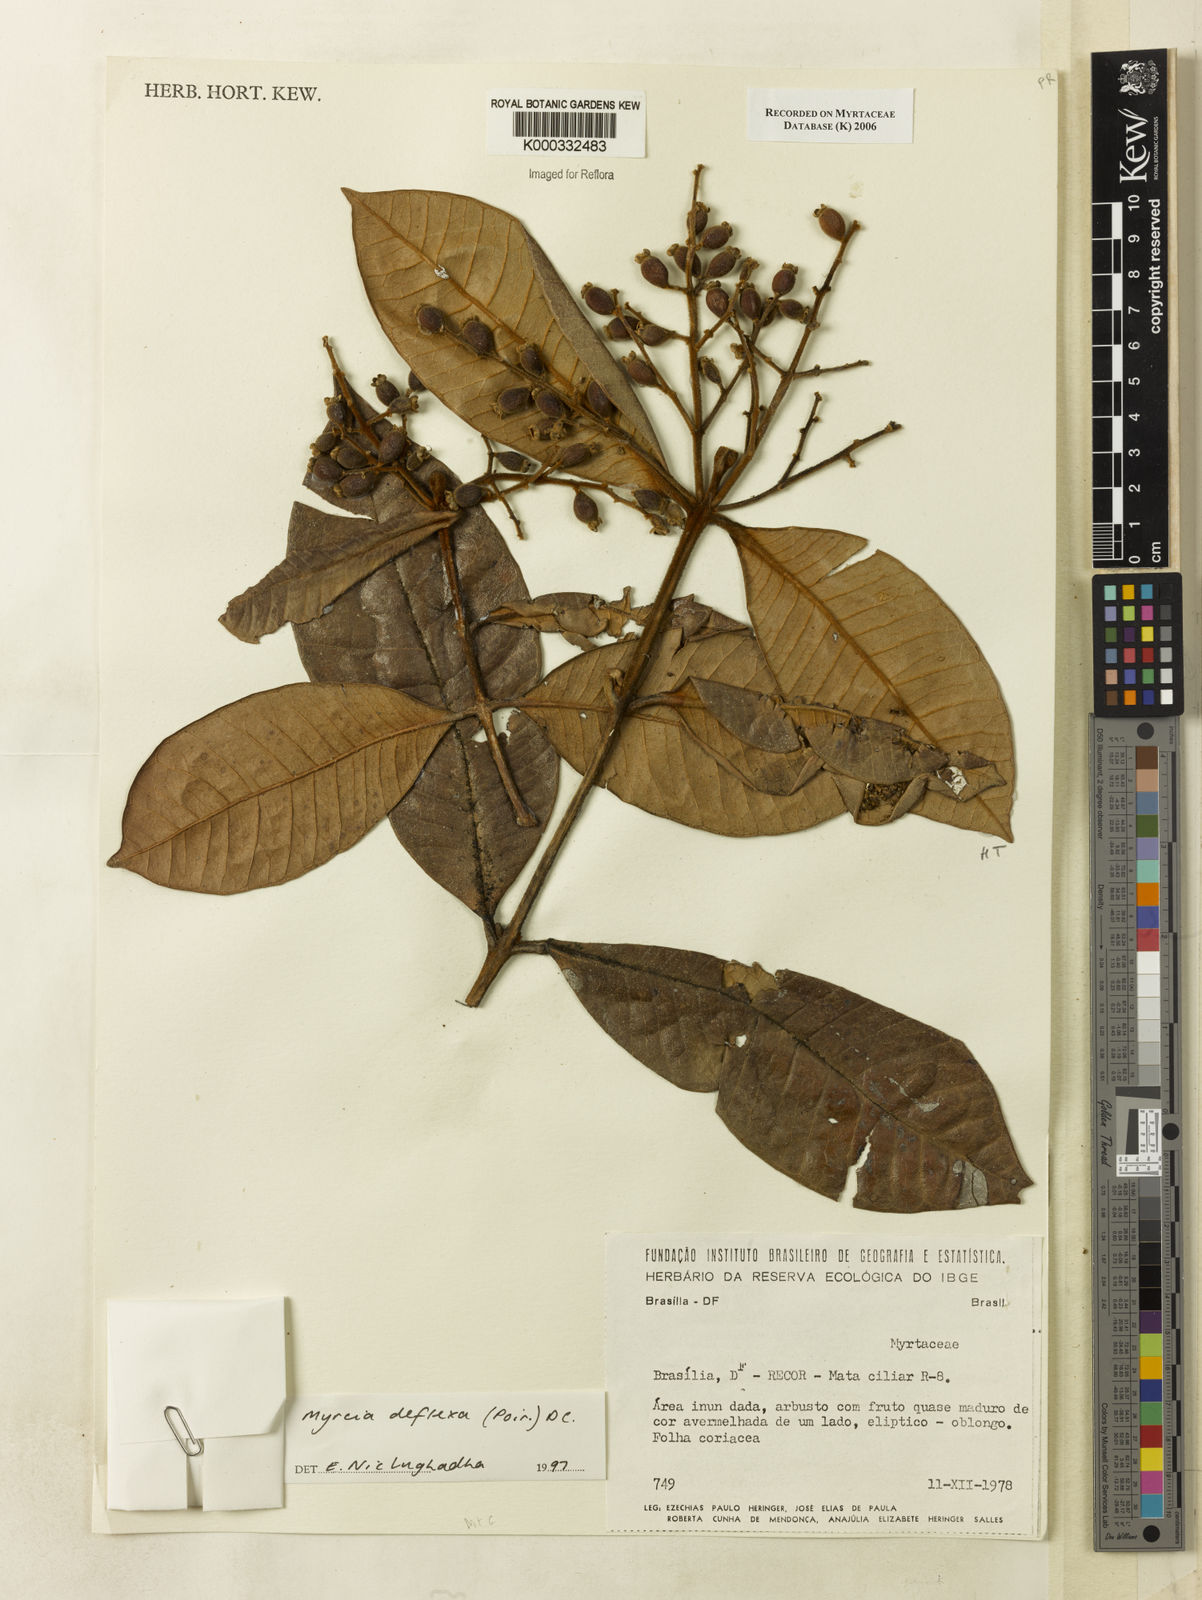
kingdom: Plantae
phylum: Tracheophyta
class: Magnoliopsida
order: Myrtales
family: Myrtaceae
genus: Myrcia
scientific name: Myrcia deflexa
